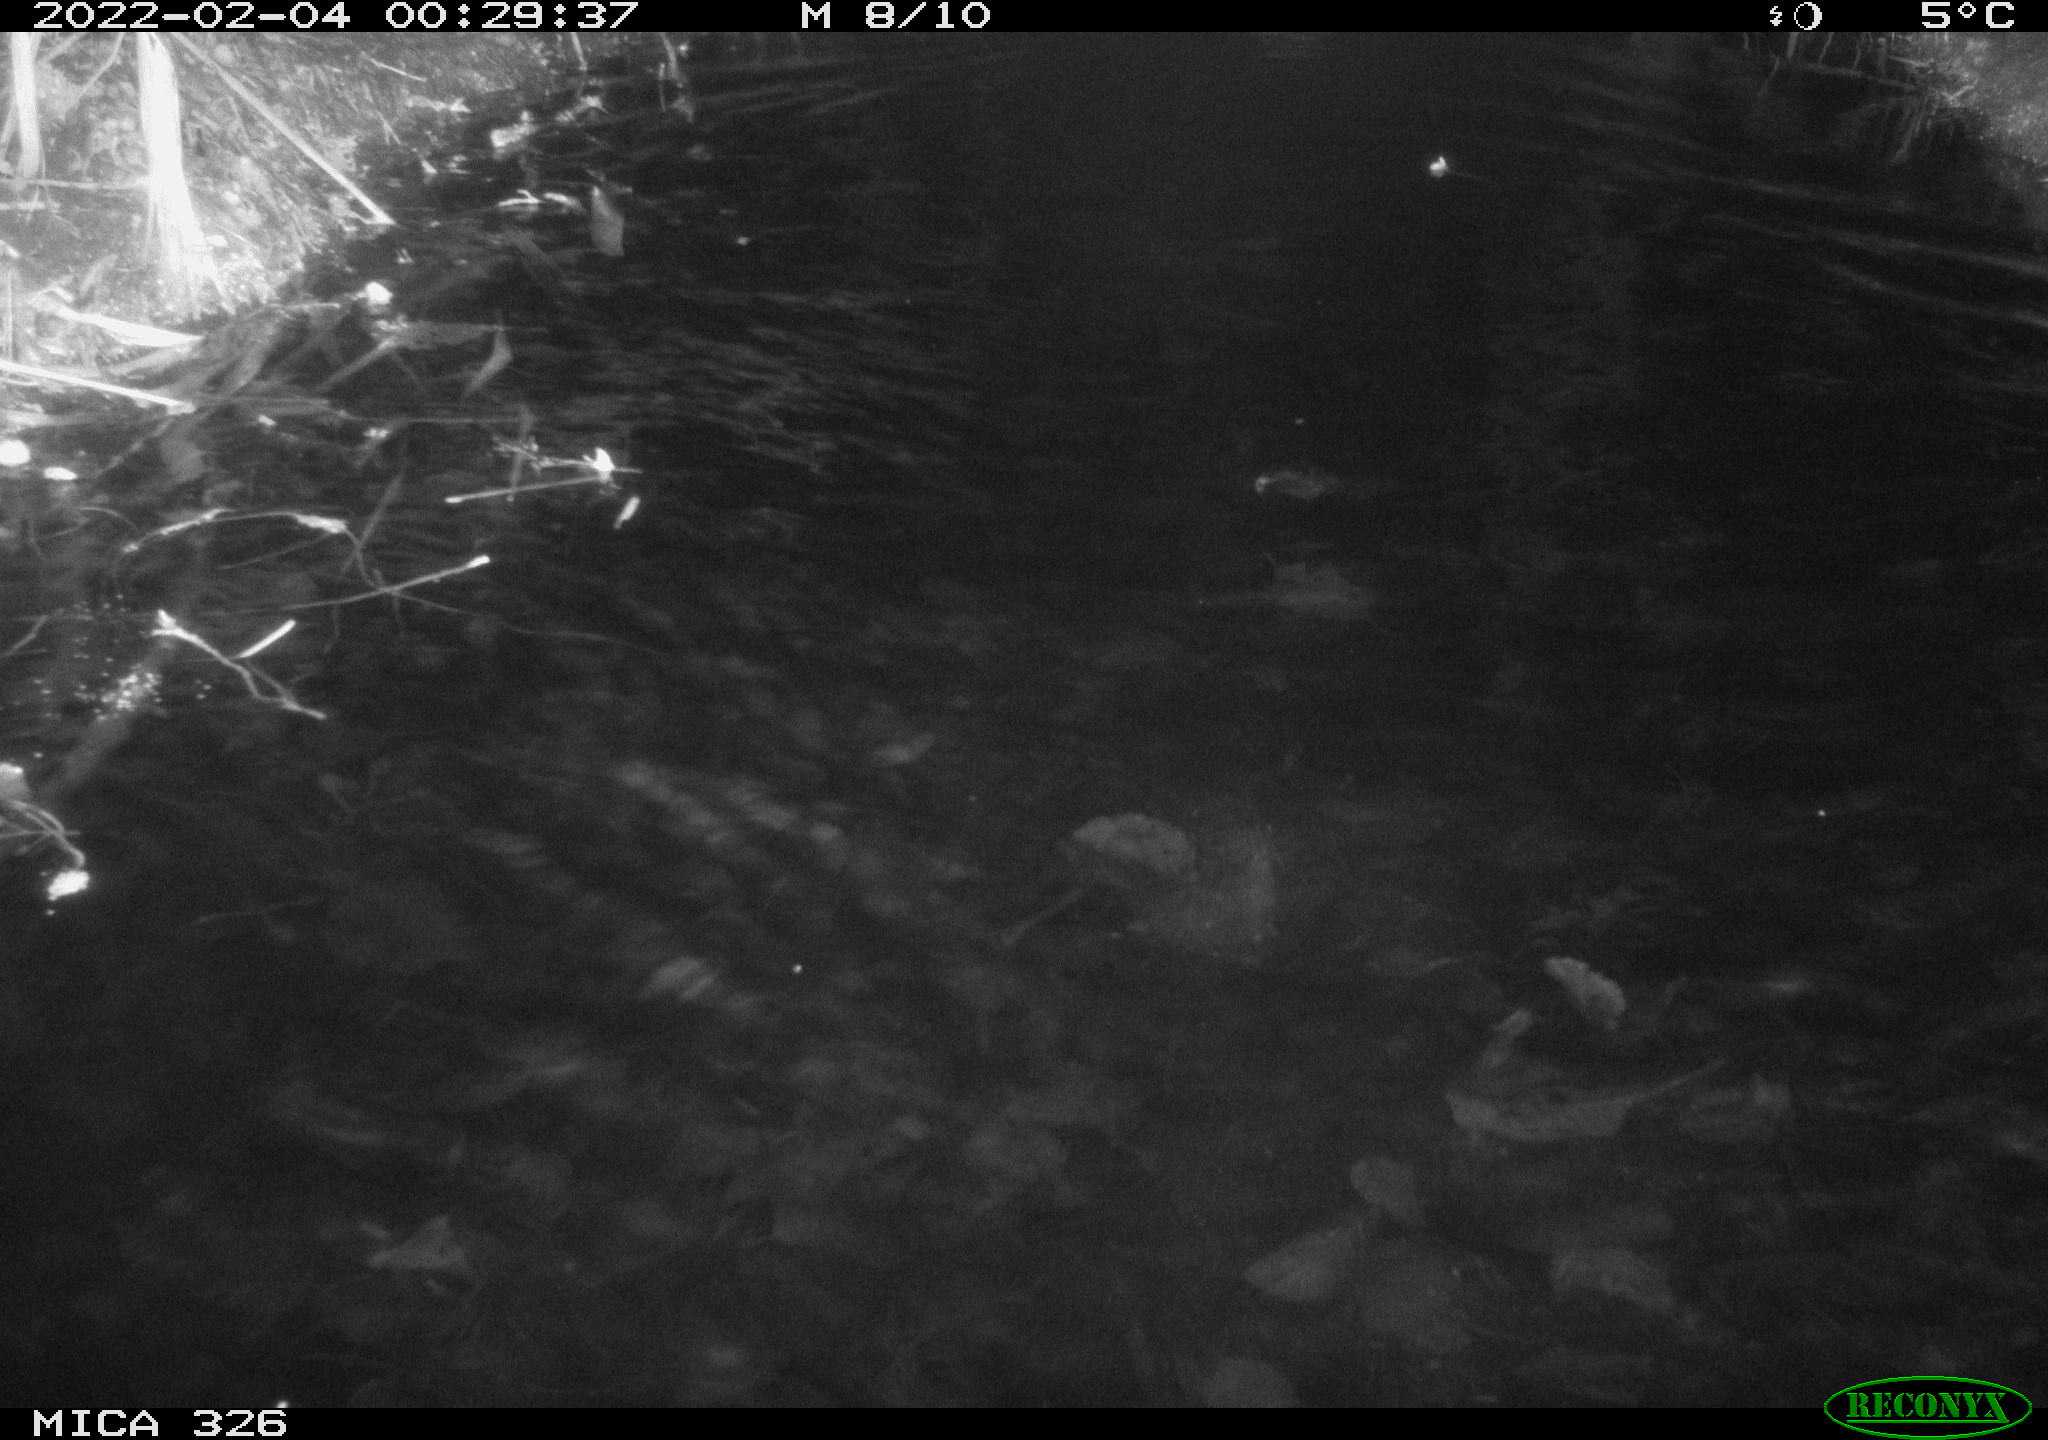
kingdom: Animalia
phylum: Chordata
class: Mammalia
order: Rodentia
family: Cricetidae
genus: Ondatra
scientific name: Ondatra zibethicus
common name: Muskrat
